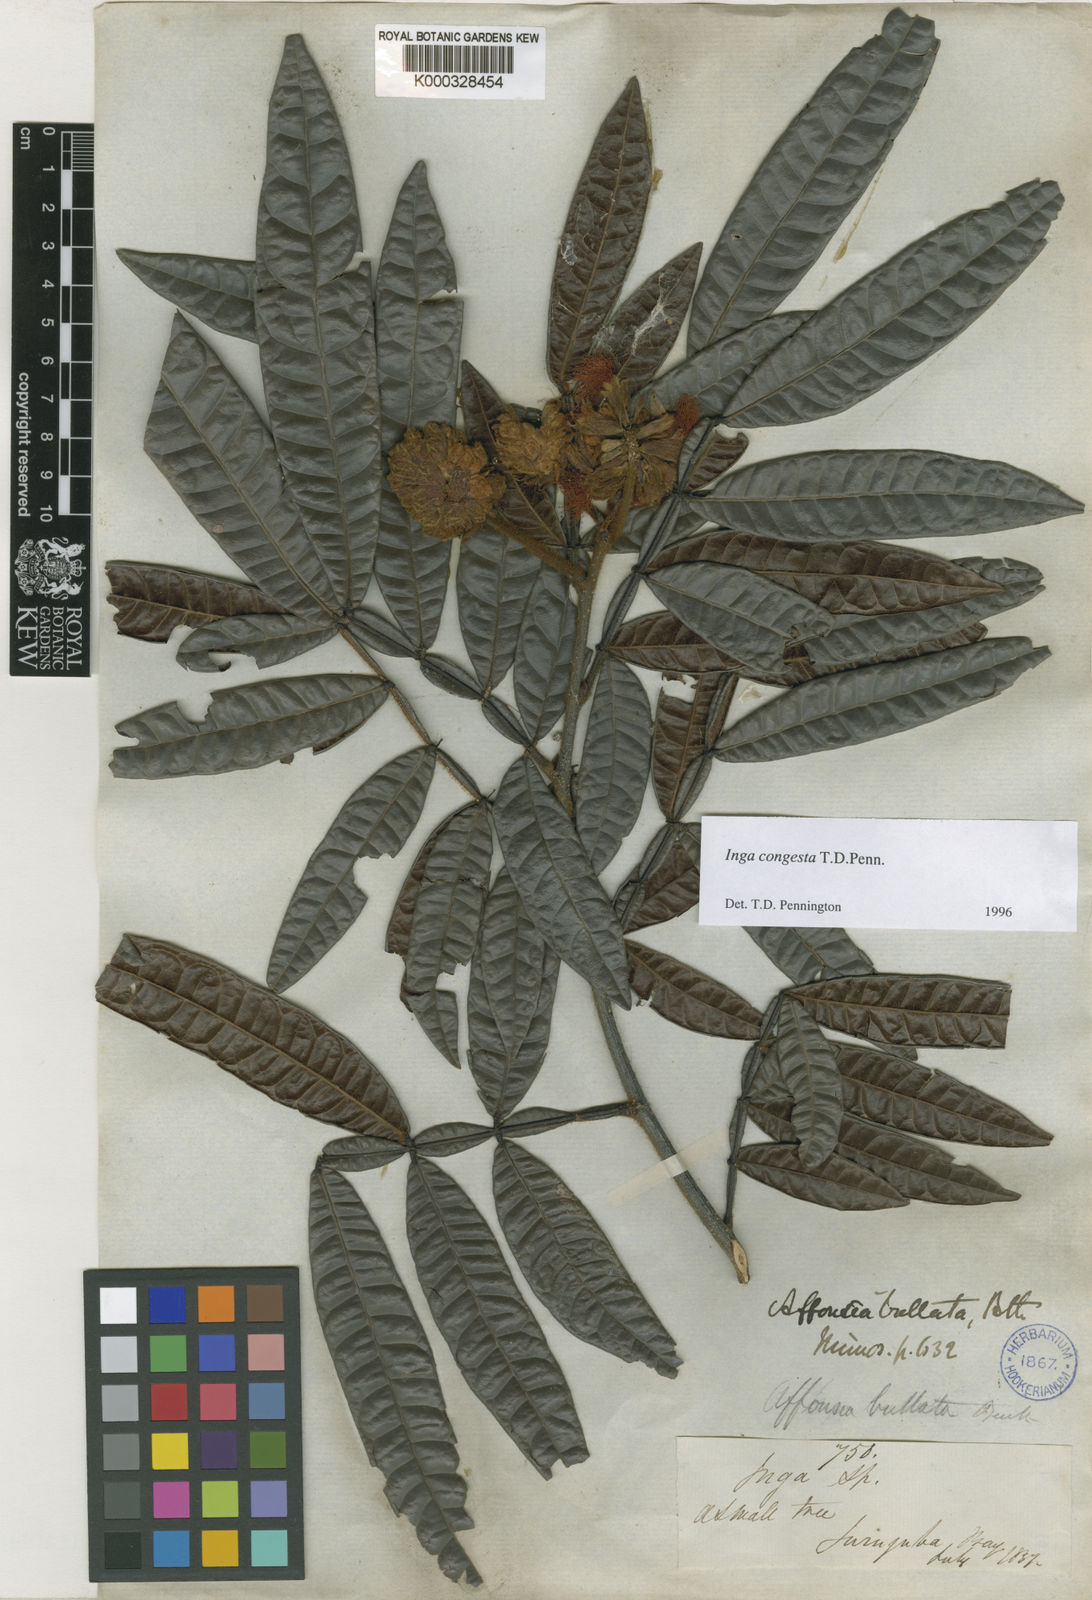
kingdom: Plantae
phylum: Tracheophyta
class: Magnoliopsida
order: Fabales
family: Fabaceae
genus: Inga
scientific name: Inga congesta
